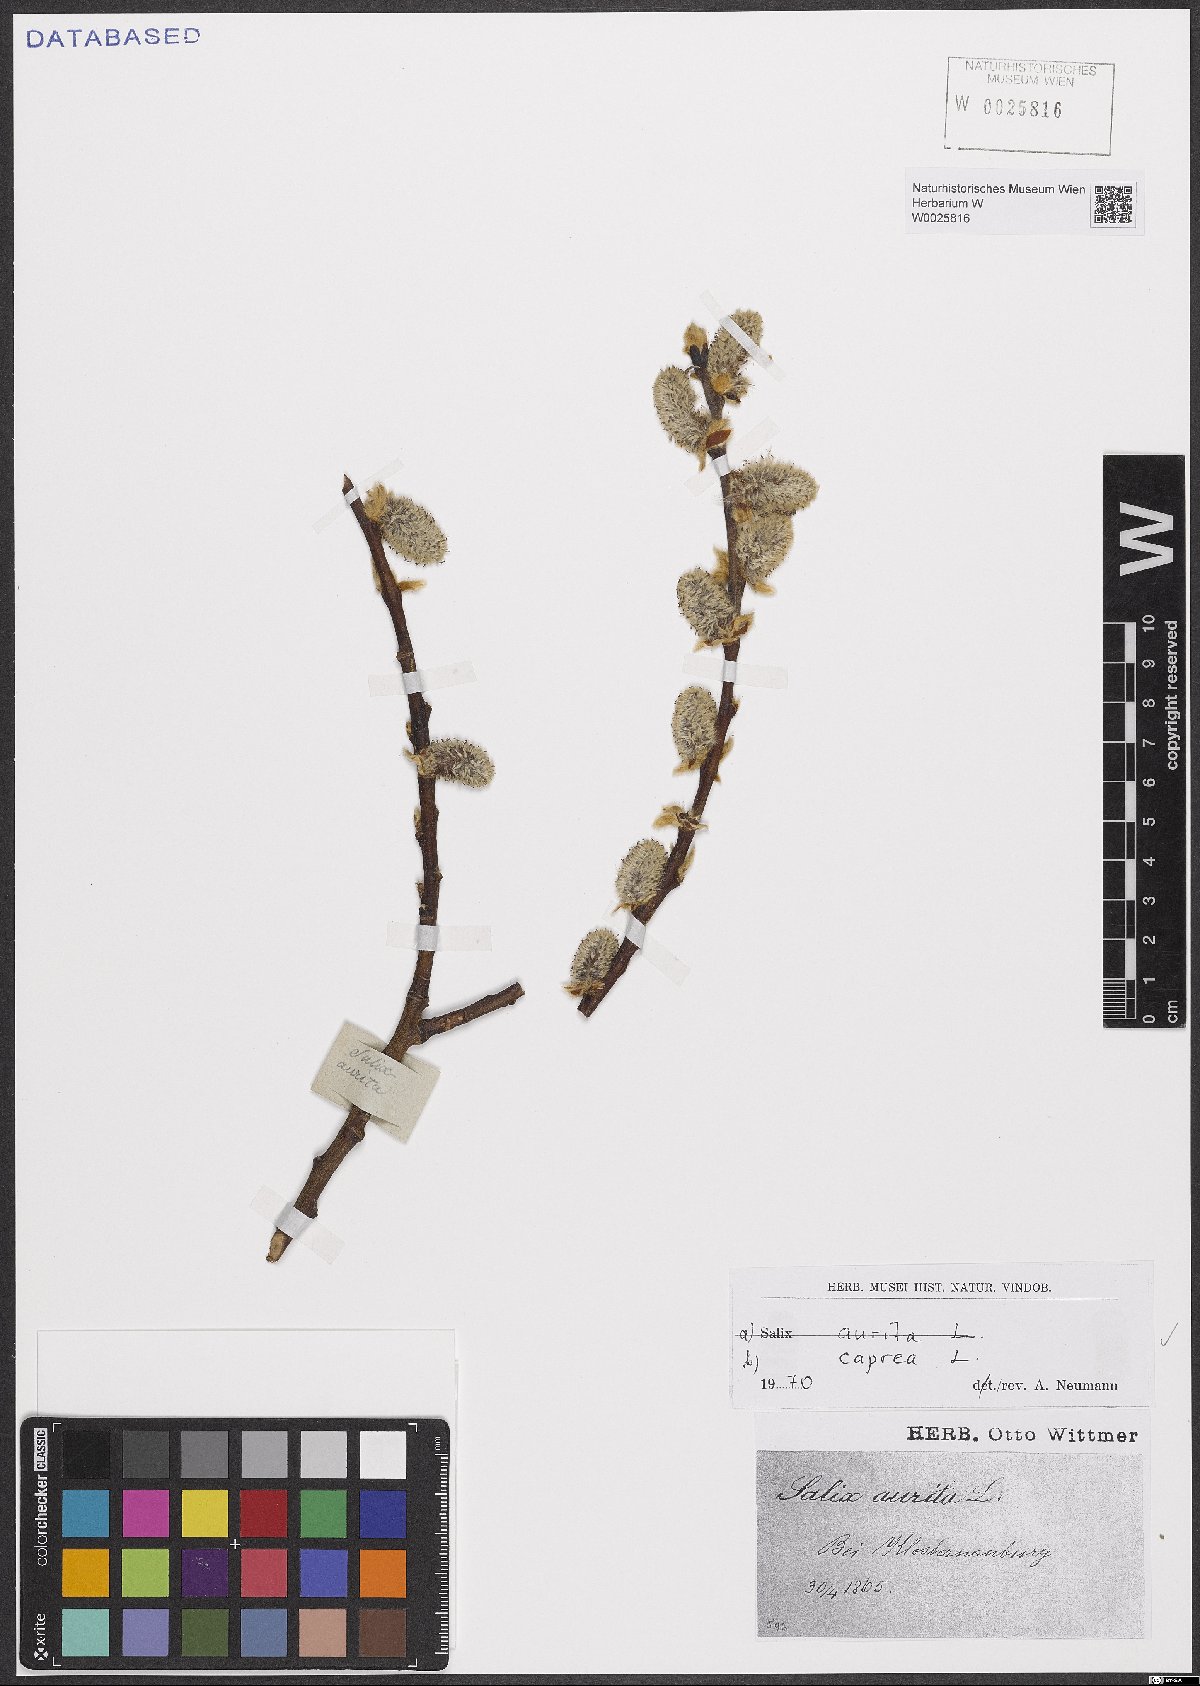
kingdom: Plantae
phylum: Tracheophyta
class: Magnoliopsida
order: Malpighiales
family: Salicaceae
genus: Salix
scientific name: Salix caprea
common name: Goat willow
